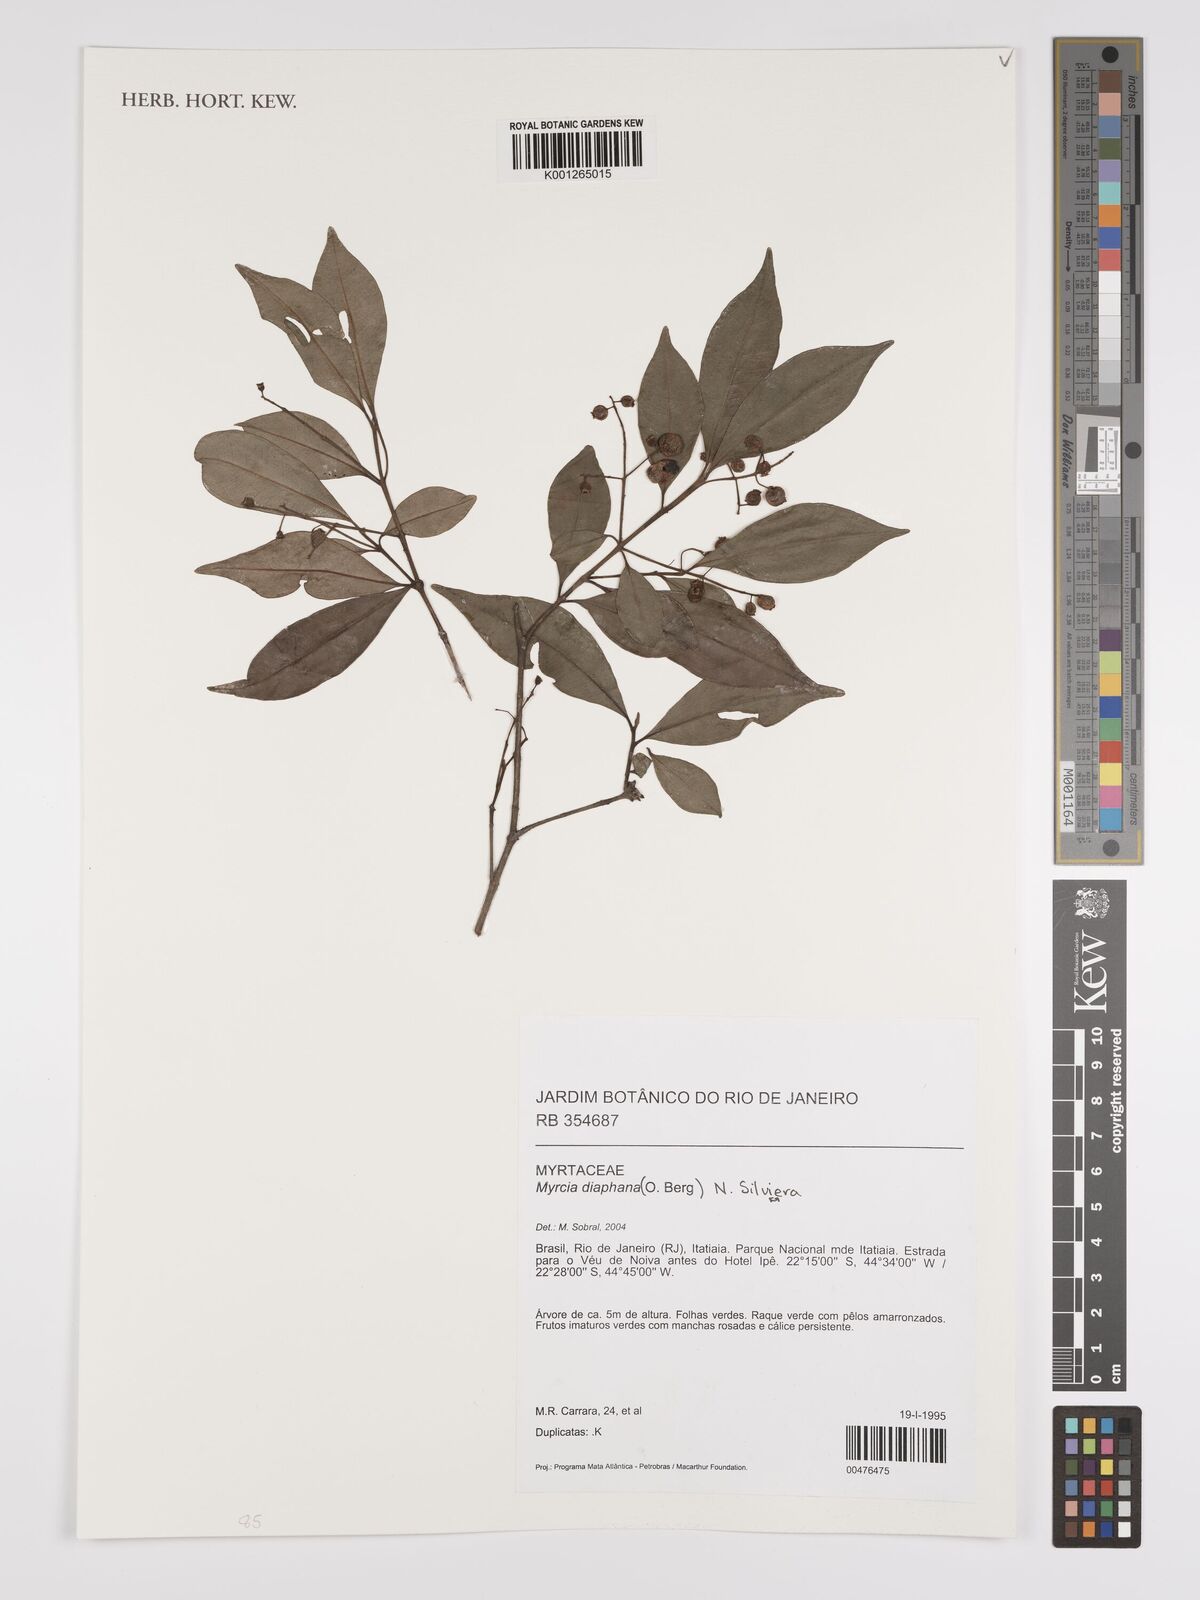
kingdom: Plantae
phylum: Tracheophyta
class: Magnoliopsida
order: Myrtales
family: Myrtaceae
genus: Myrcia
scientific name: Myrcia diaphana
